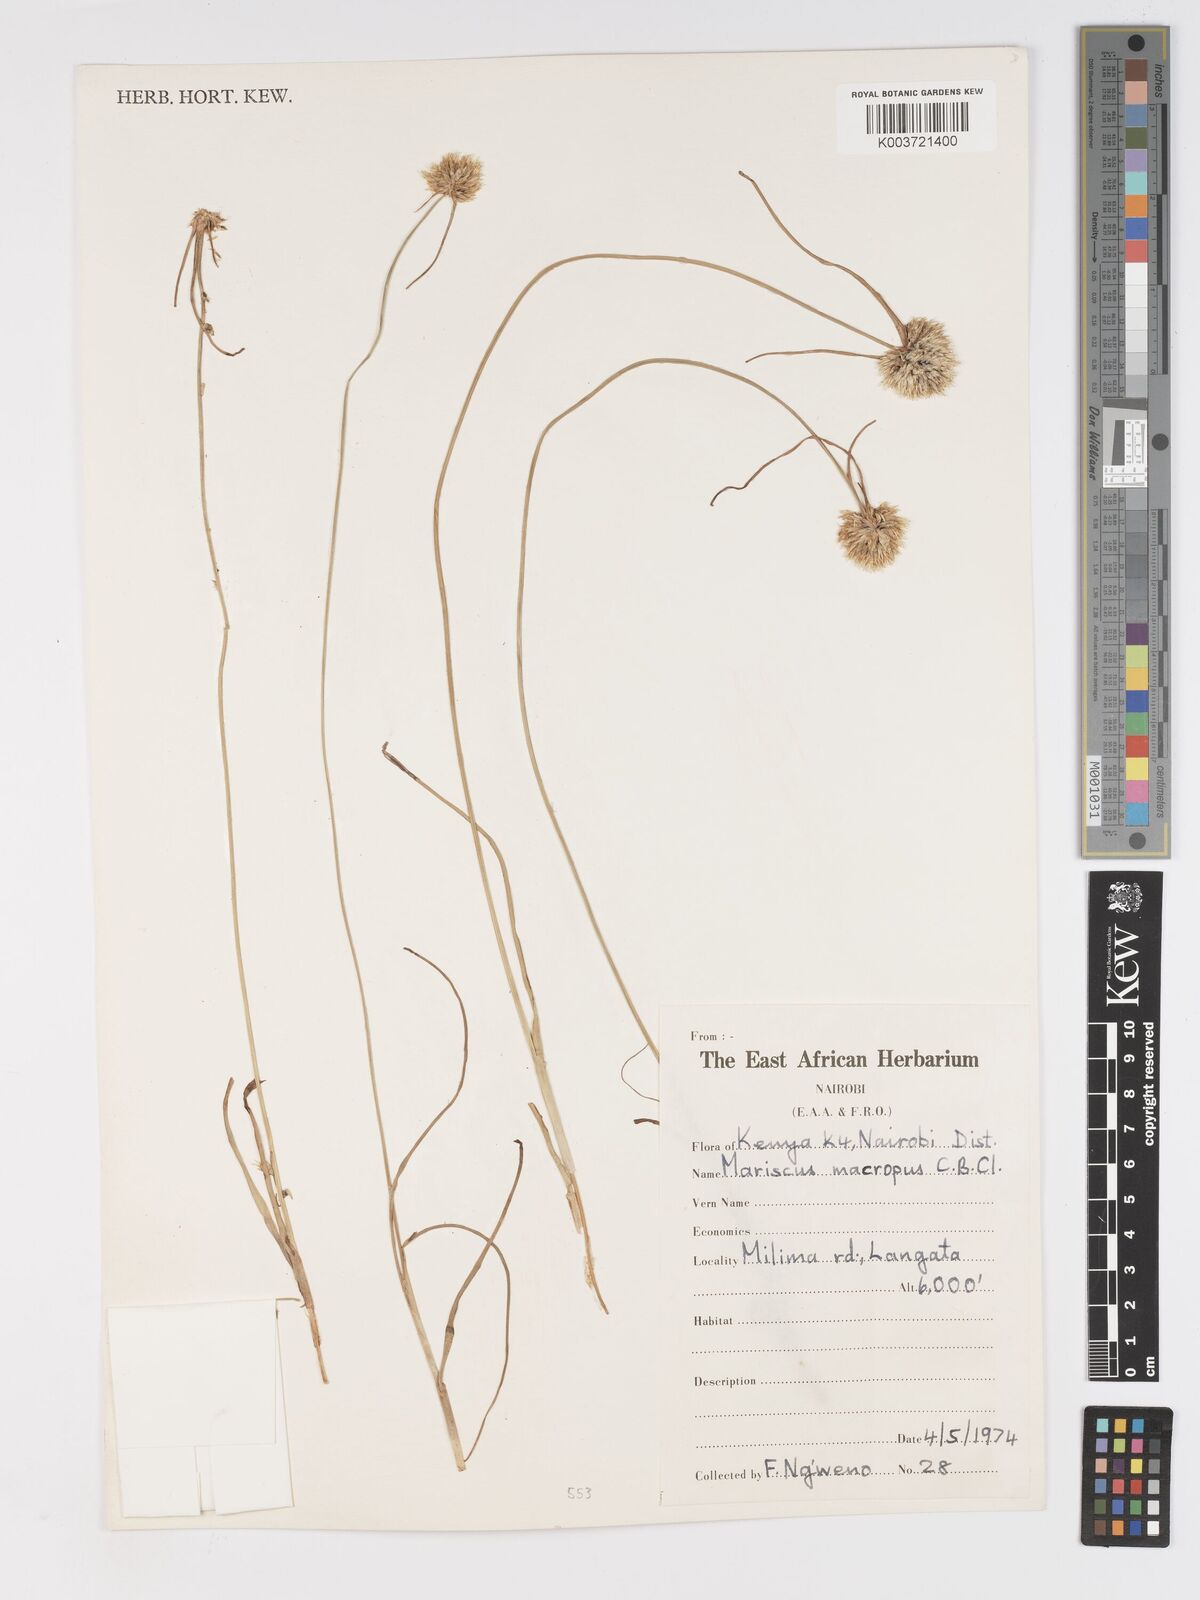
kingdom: Plantae
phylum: Tracheophyta
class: Liliopsida
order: Poales
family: Cyperaceae
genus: Cyperus
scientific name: Cyperus mollipes
